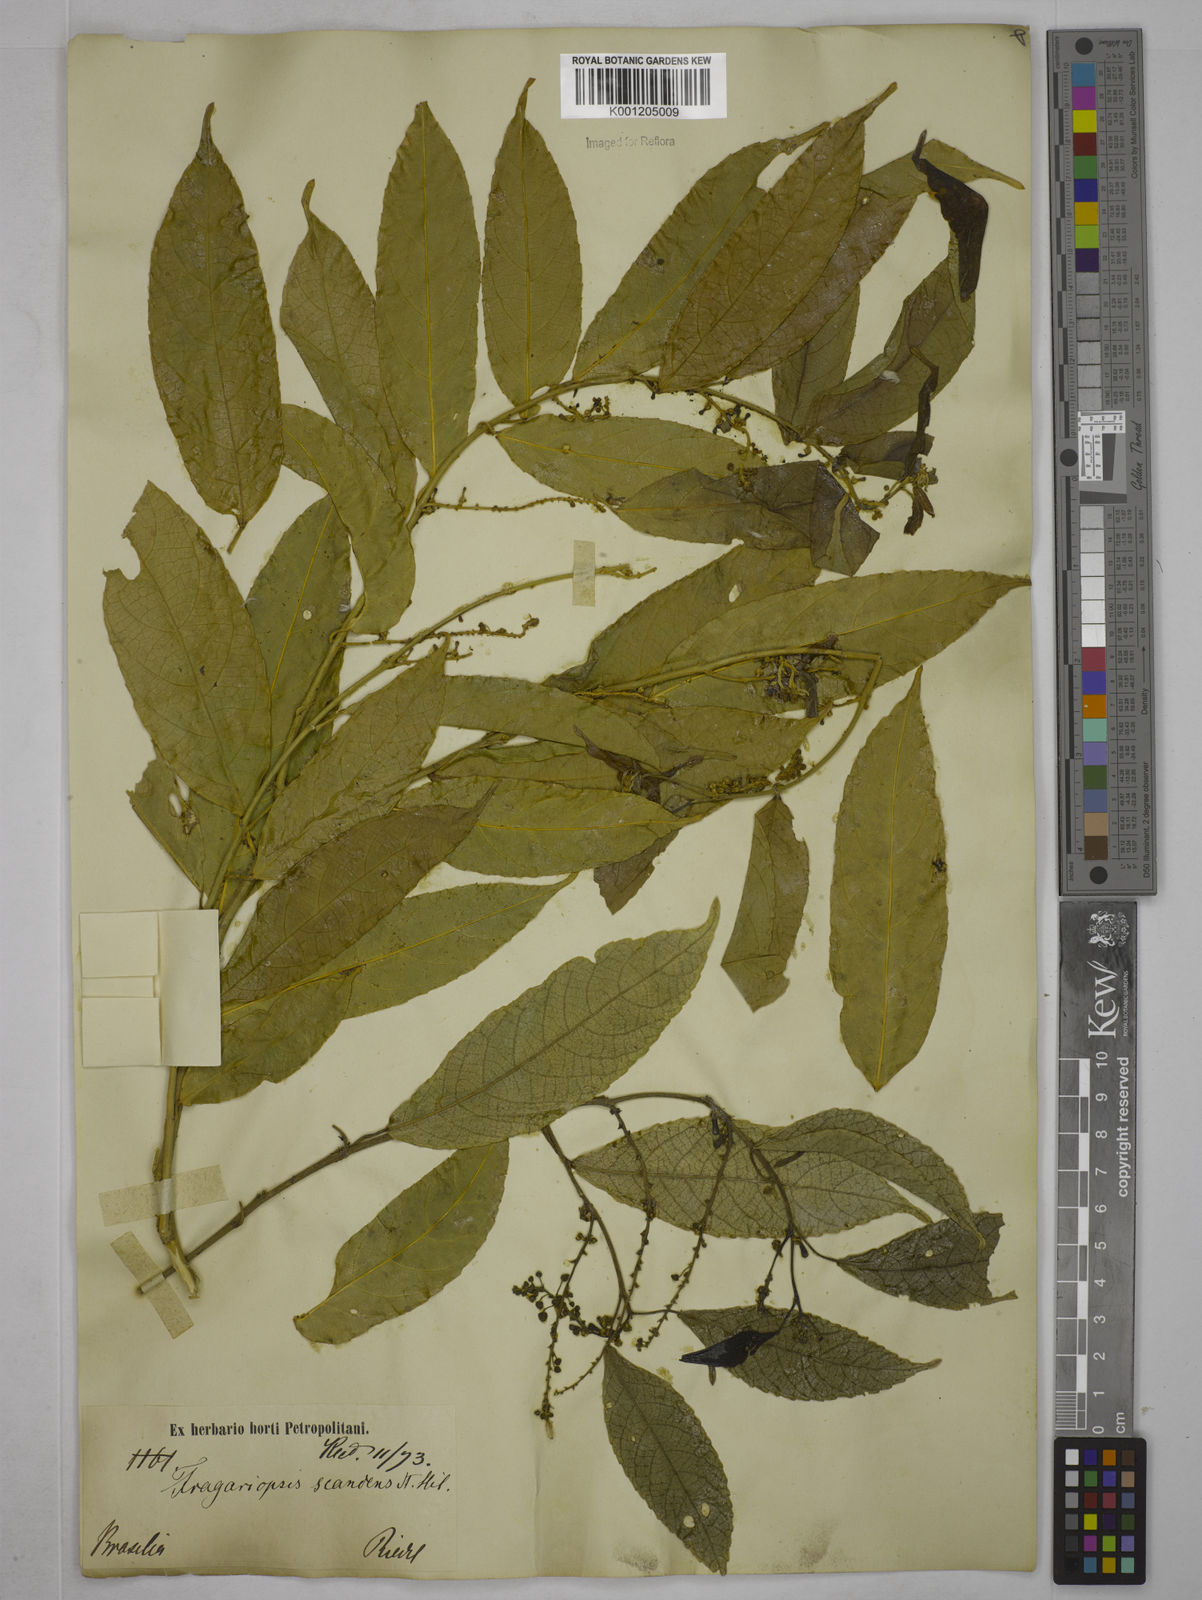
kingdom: Plantae
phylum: Tracheophyta
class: Magnoliopsida
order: Malpighiales
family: Euphorbiaceae
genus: Plukenetia
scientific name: Plukenetia serrata
